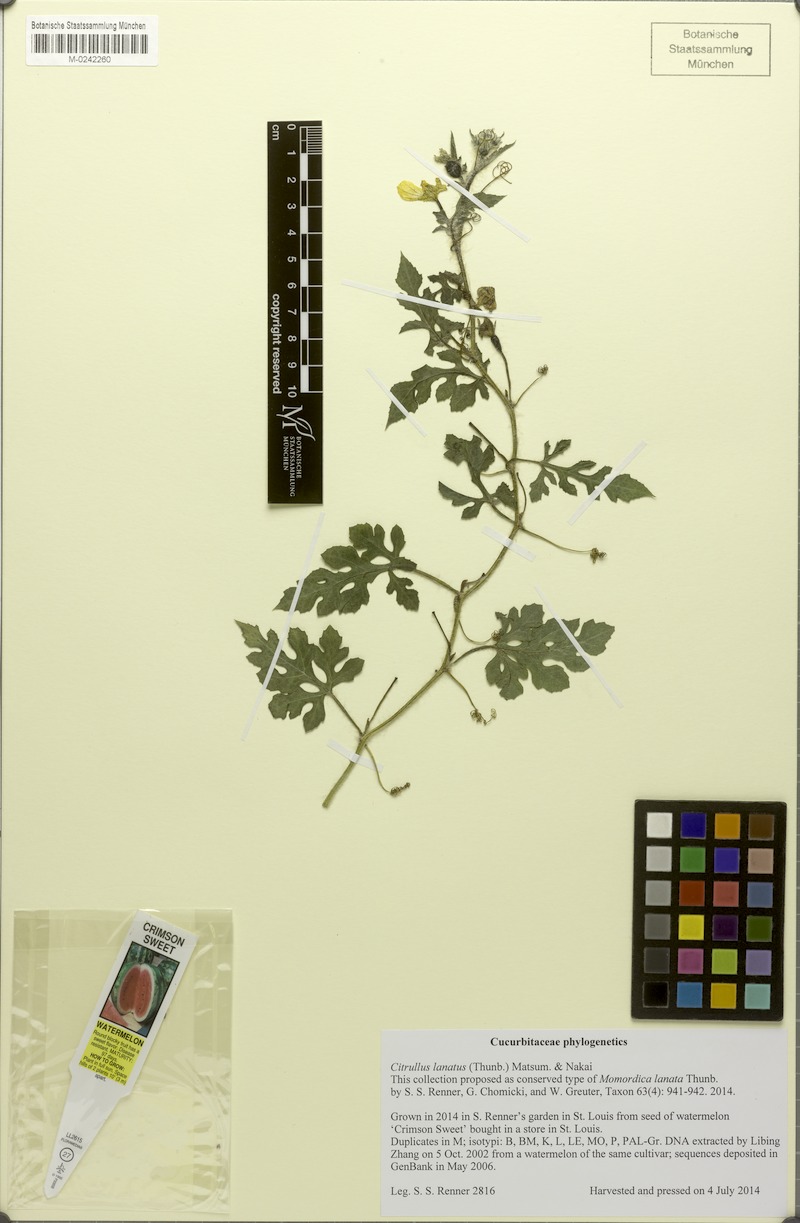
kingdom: Plantae
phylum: Tracheophyta
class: Magnoliopsida
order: Cucurbitales
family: Cucurbitaceae
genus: Citrullus
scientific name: Citrullus lanatus
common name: Watermelon
